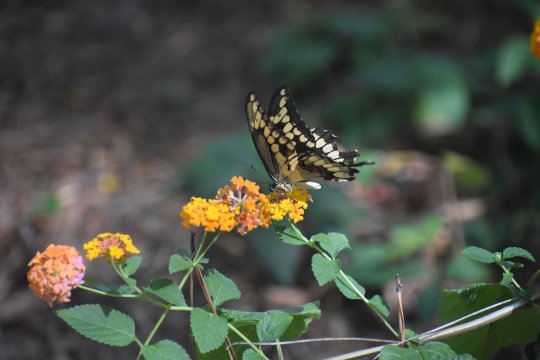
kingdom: Animalia
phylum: Arthropoda
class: Insecta
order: Lepidoptera
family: Papilionidae
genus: Papilio
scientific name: Papilio cresphontes
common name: Eastern Giant Swallowtail
